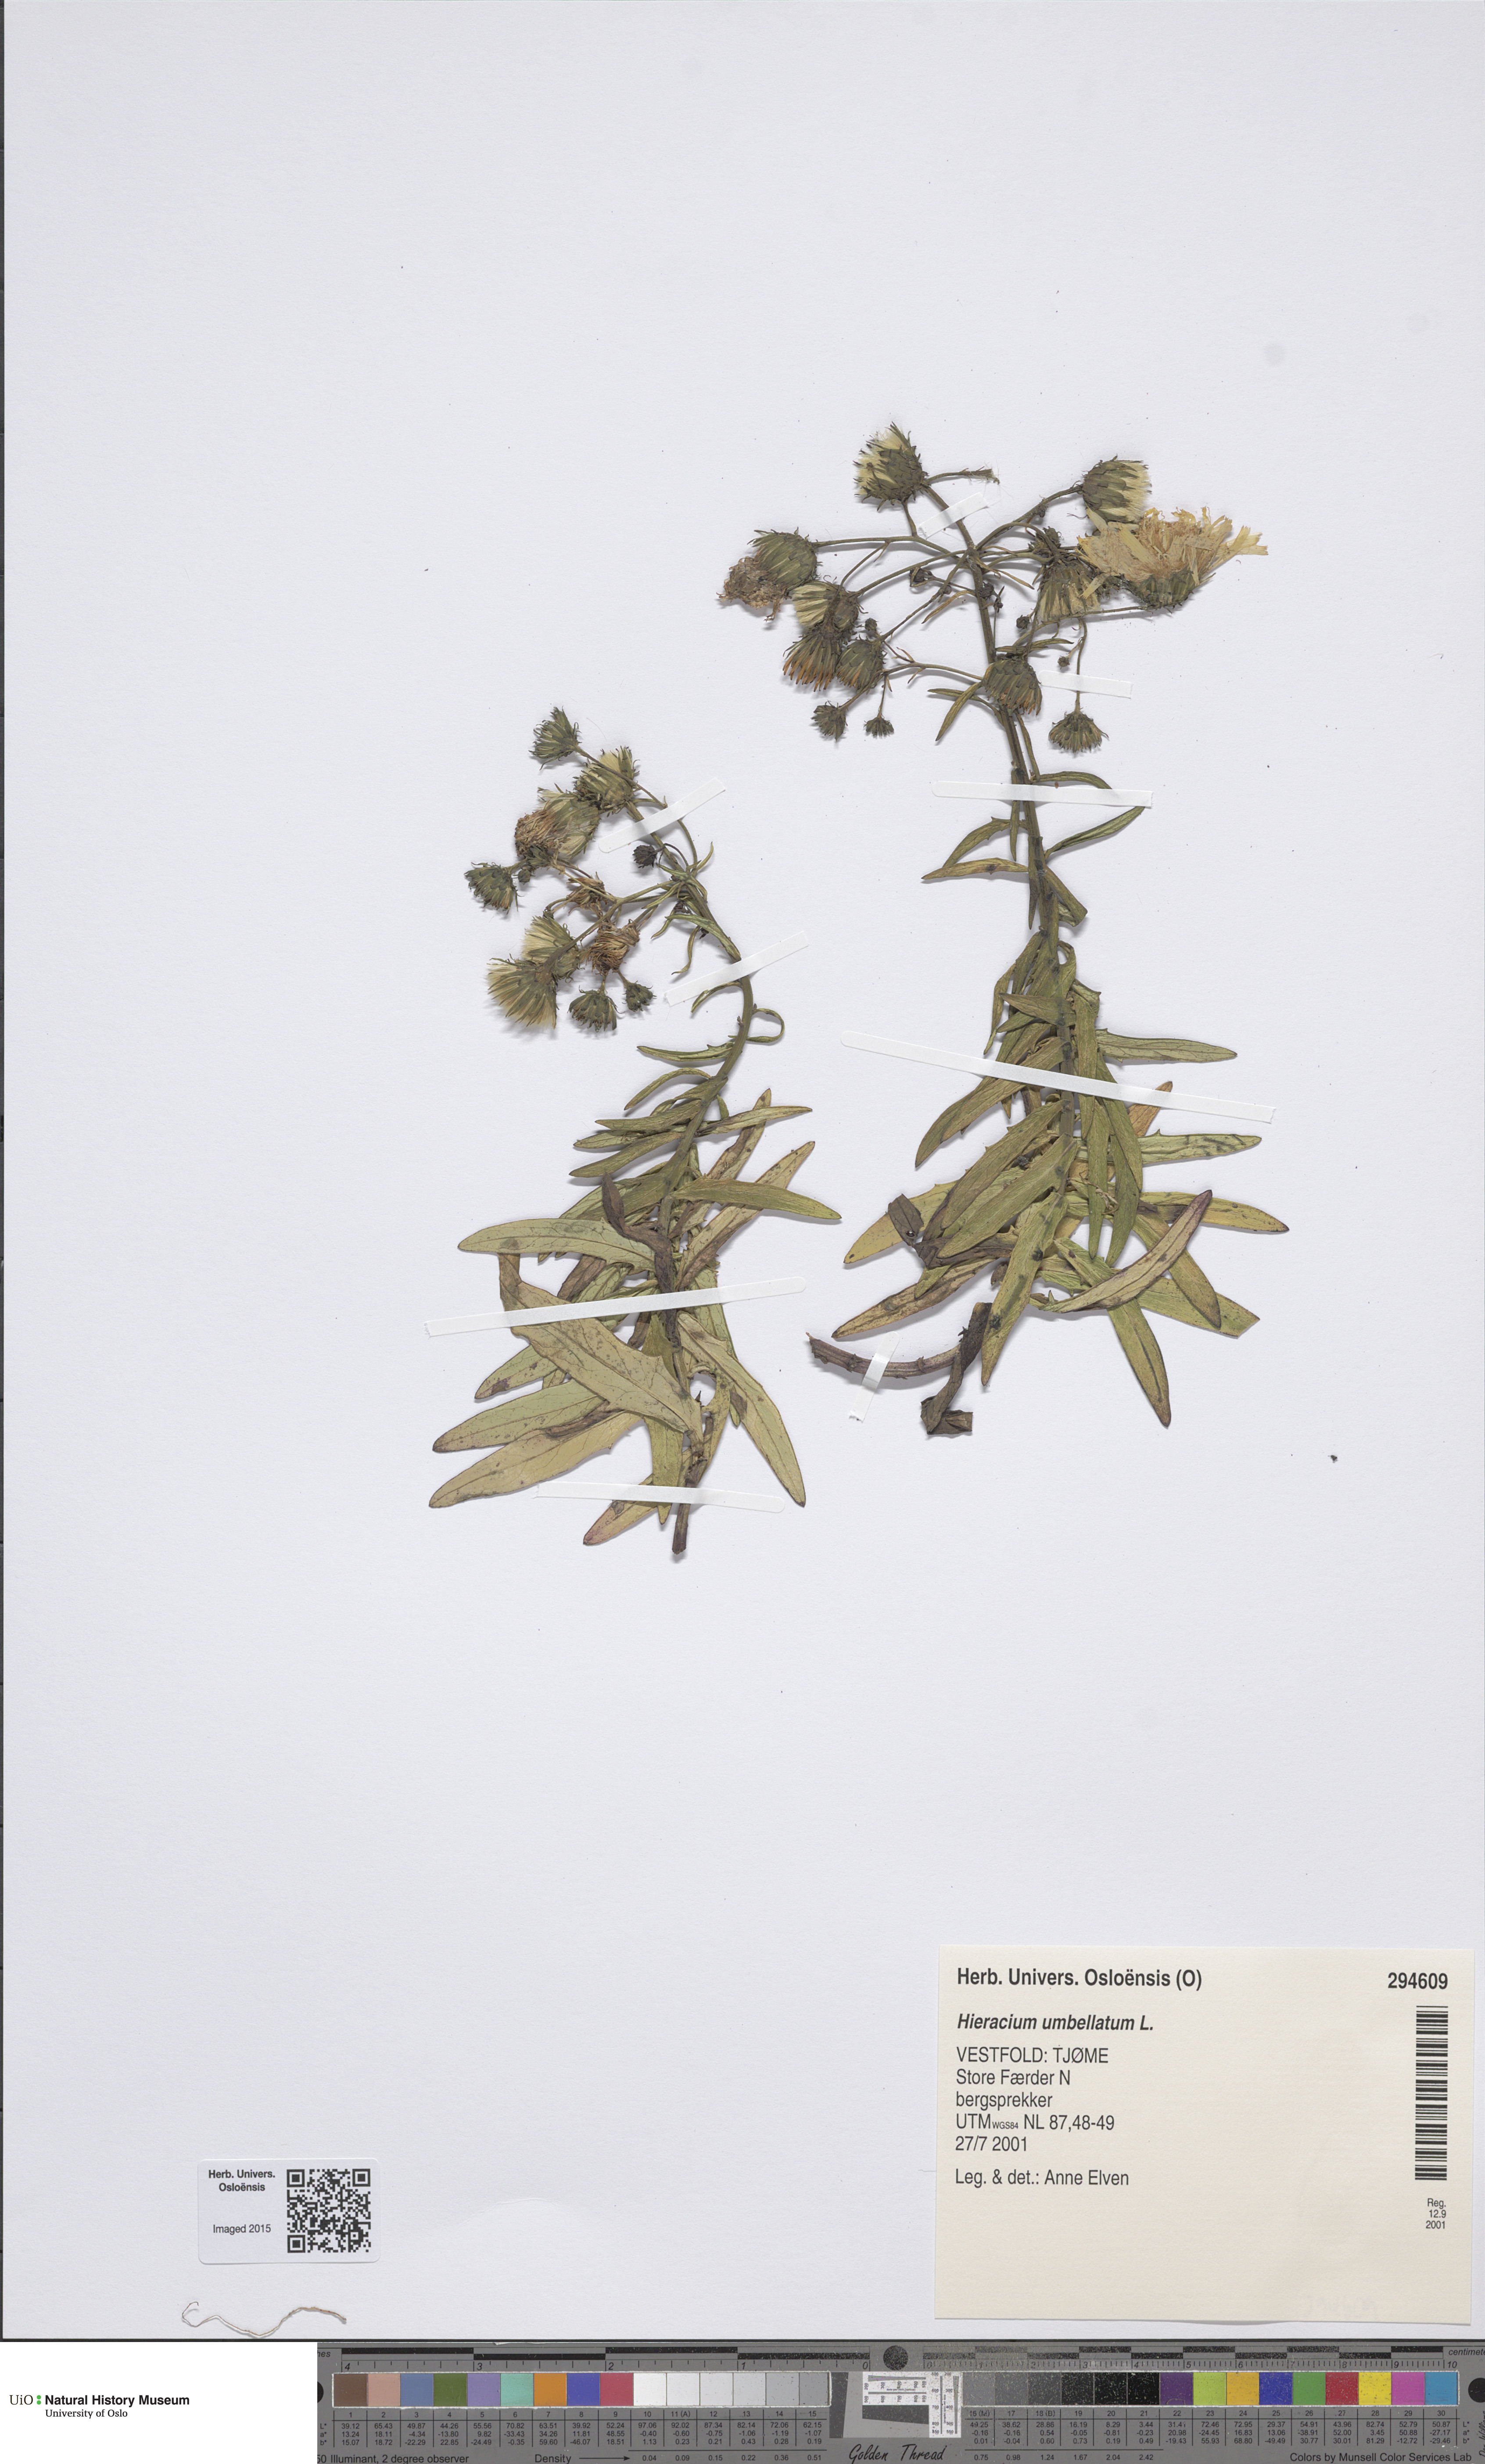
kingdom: Plantae
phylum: Tracheophyta
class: Magnoliopsida
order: Asterales
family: Asteraceae
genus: Hieracium
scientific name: Hieracium umbellatum
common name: Northern hawkweed
